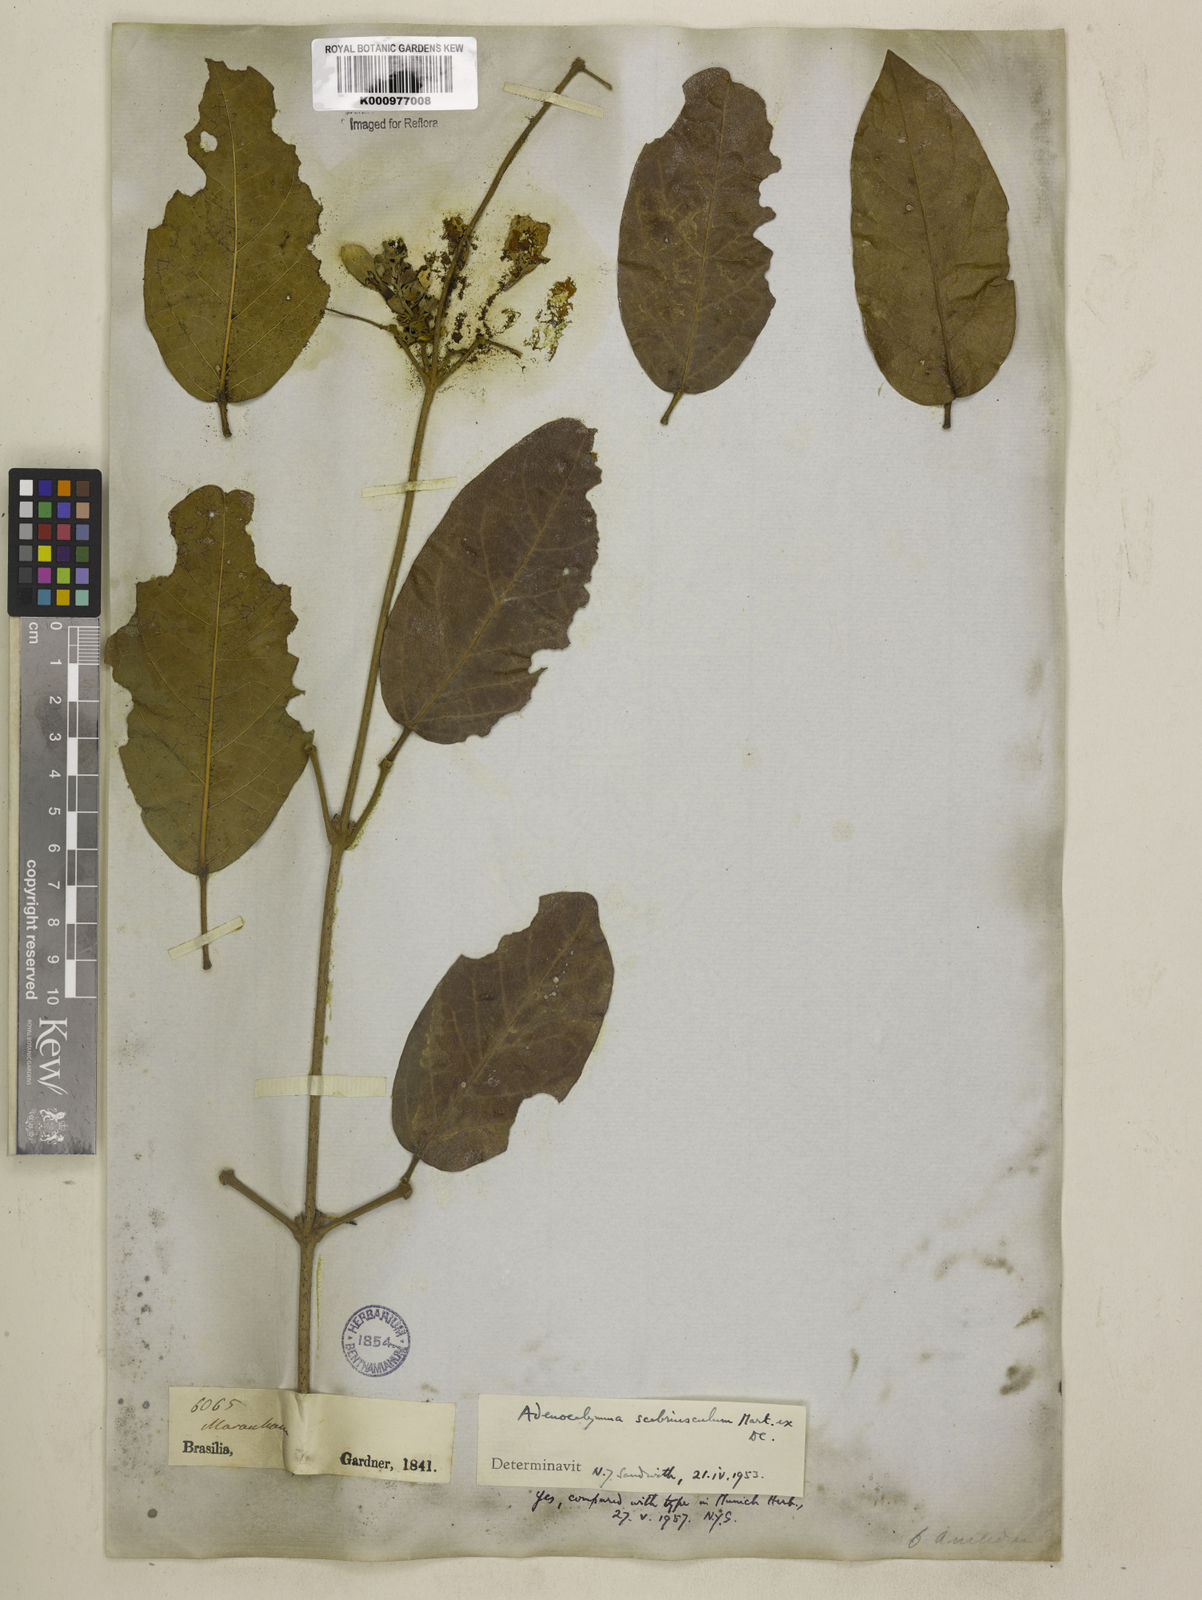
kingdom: Plantae
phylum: Tracheophyta
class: Magnoliopsida
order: Lamiales
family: Bignoniaceae
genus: Adenocalymma
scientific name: Adenocalymma scabriusculum
